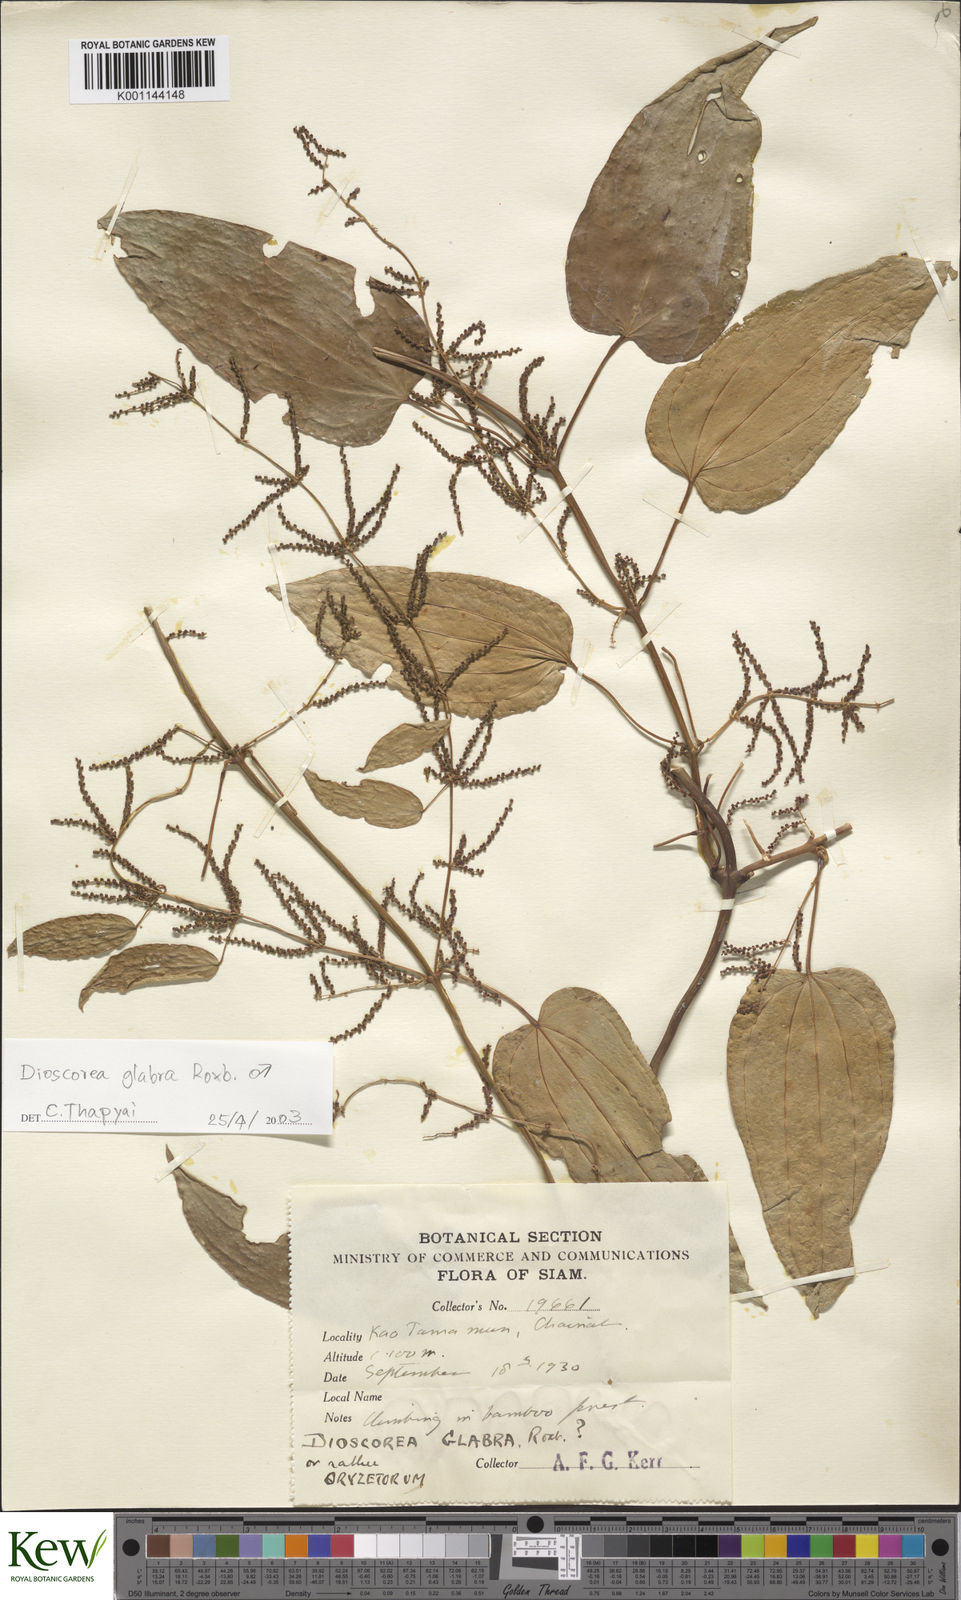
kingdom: Plantae
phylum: Tracheophyta
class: Liliopsida
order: Dioscoreales
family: Dioscoreaceae
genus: Dioscorea
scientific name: Dioscorea glabra
